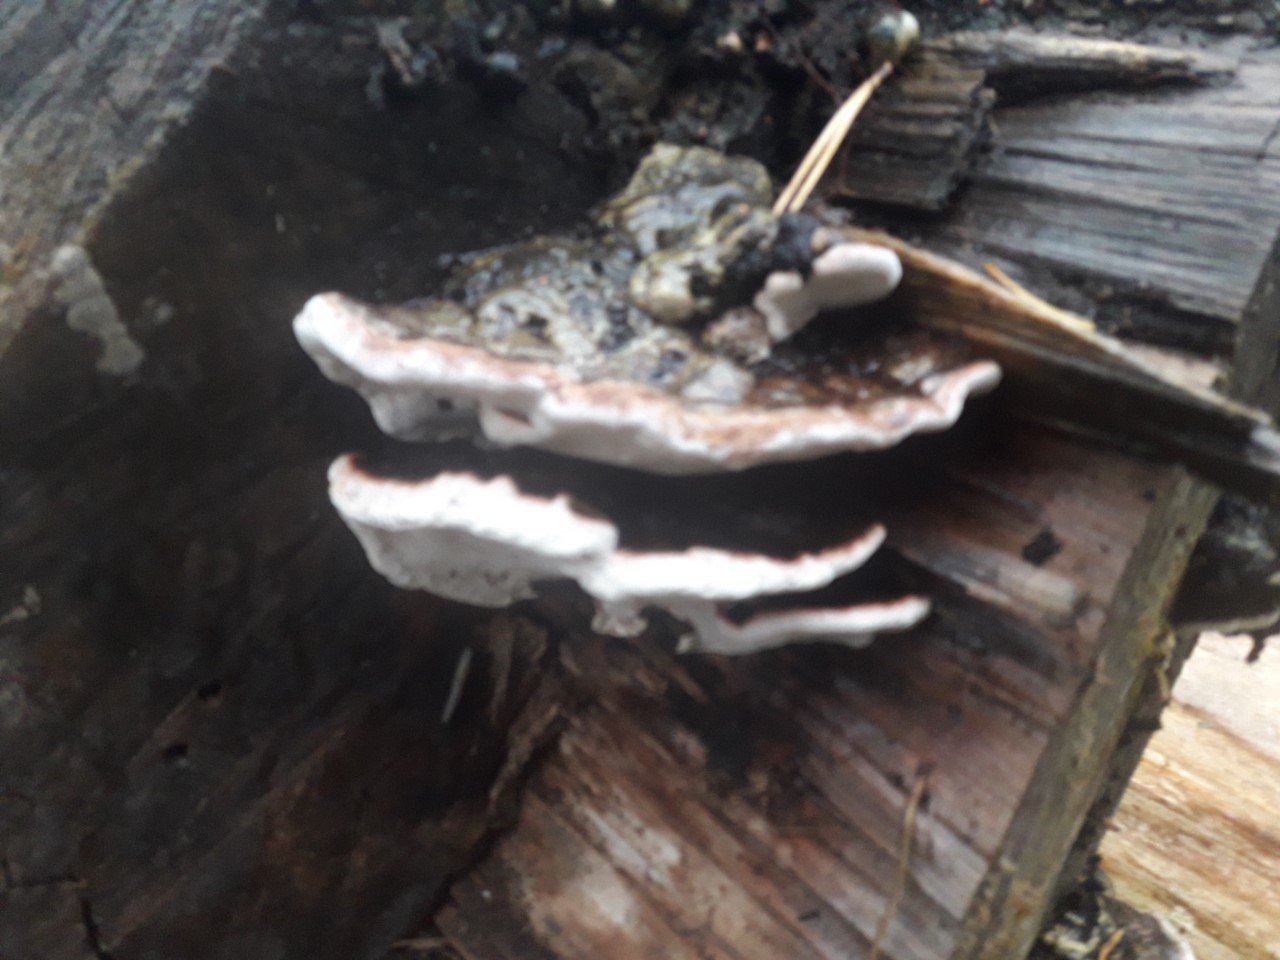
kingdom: Fungi
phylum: Basidiomycota
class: Agaricomycetes
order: Polyporales
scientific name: Polyporales
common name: poresvampordenen
